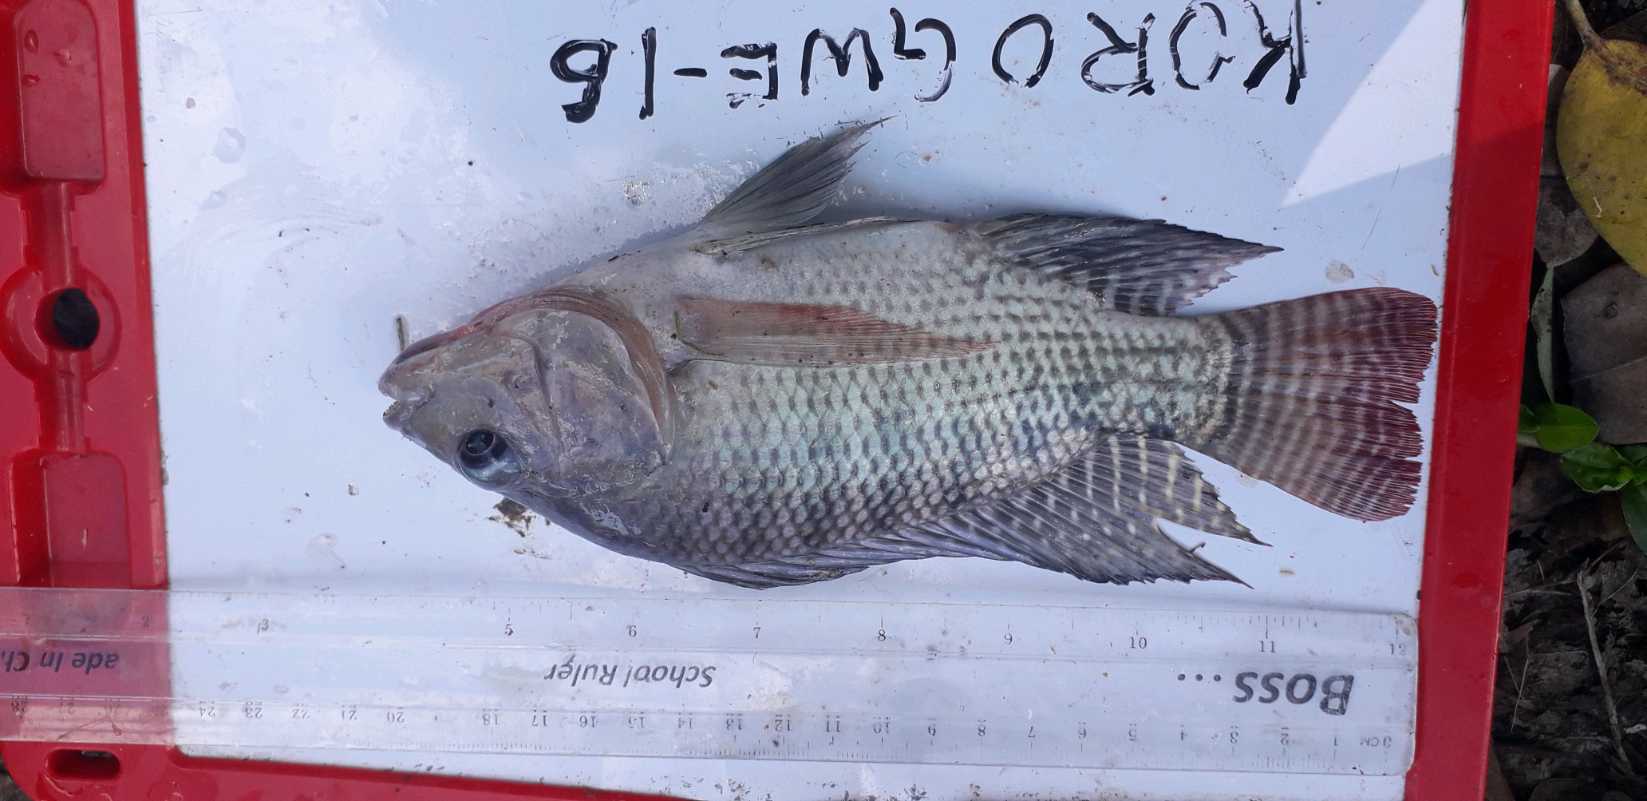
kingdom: Animalia
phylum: Chordata
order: Perciformes
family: Cichlidae
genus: Oreochromis
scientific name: Oreochromis niloticus
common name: Nile tilapia
